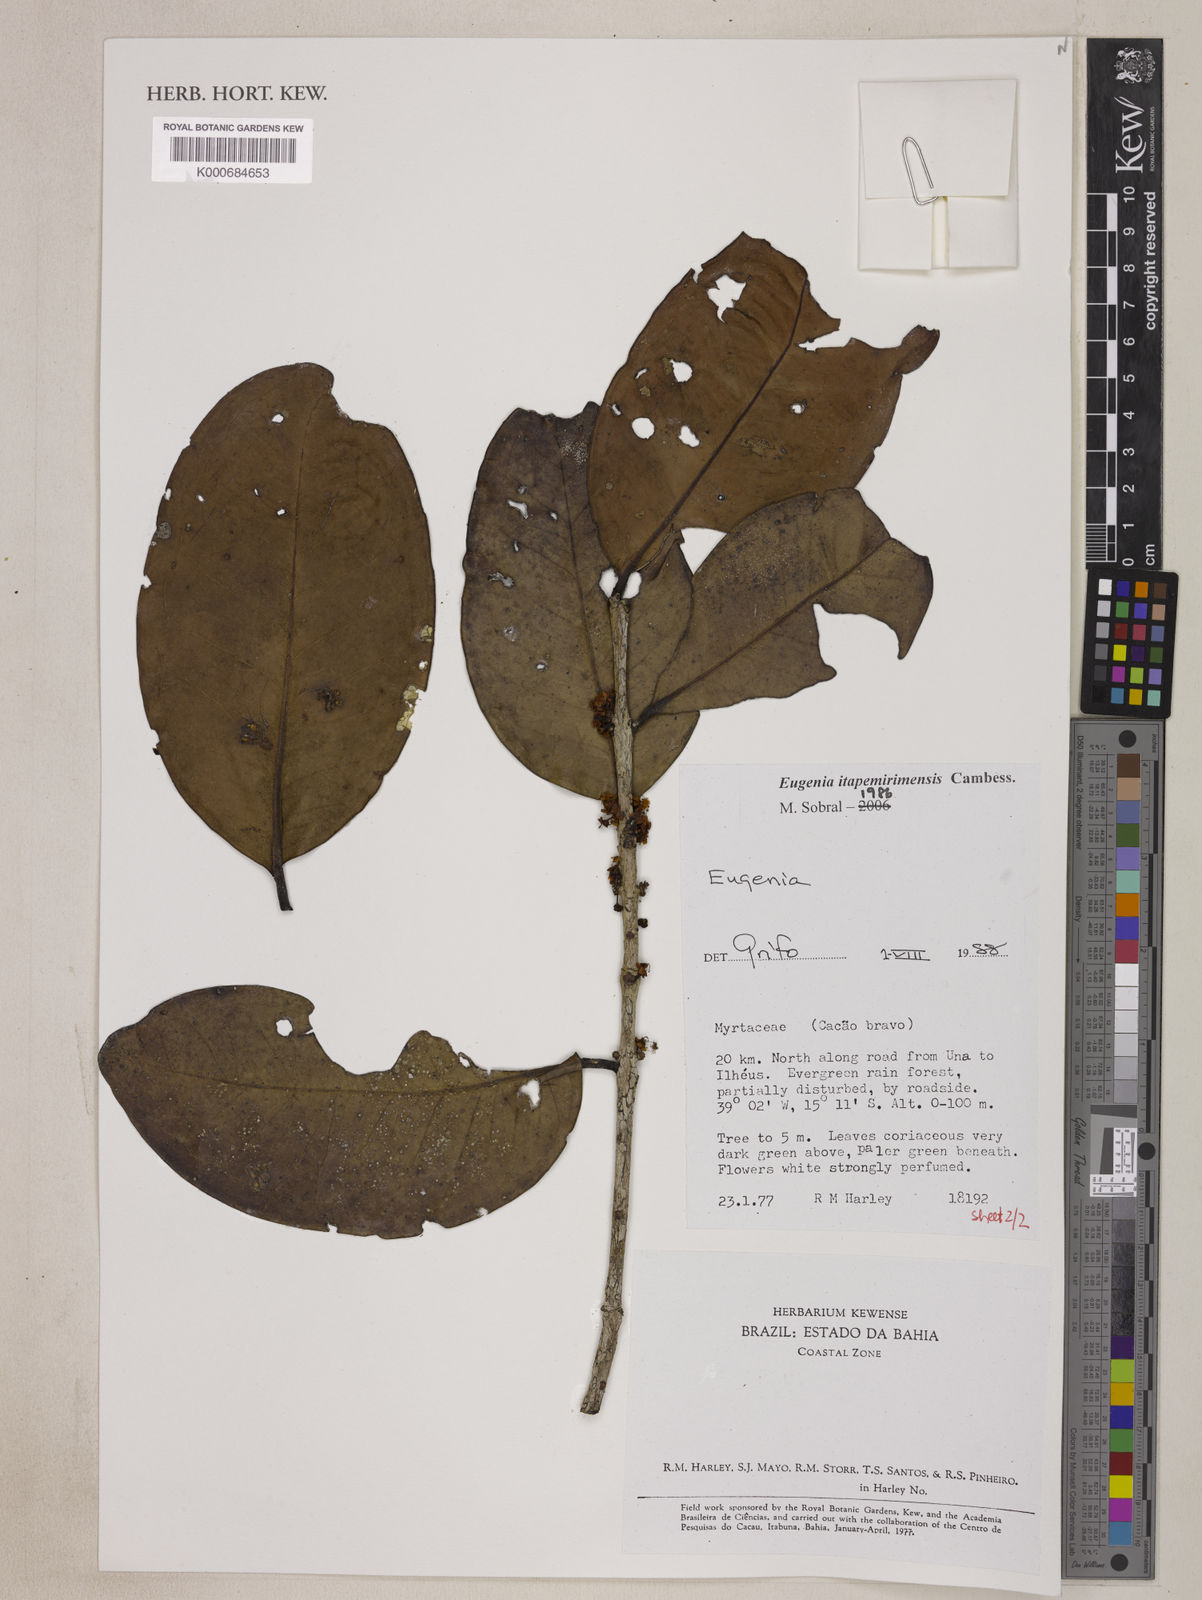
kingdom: Plantae
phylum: Tracheophyta
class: Magnoliopsida
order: Myrtales
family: Myrtaceae
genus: Eugenia
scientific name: Eugenia itapemirimensis
